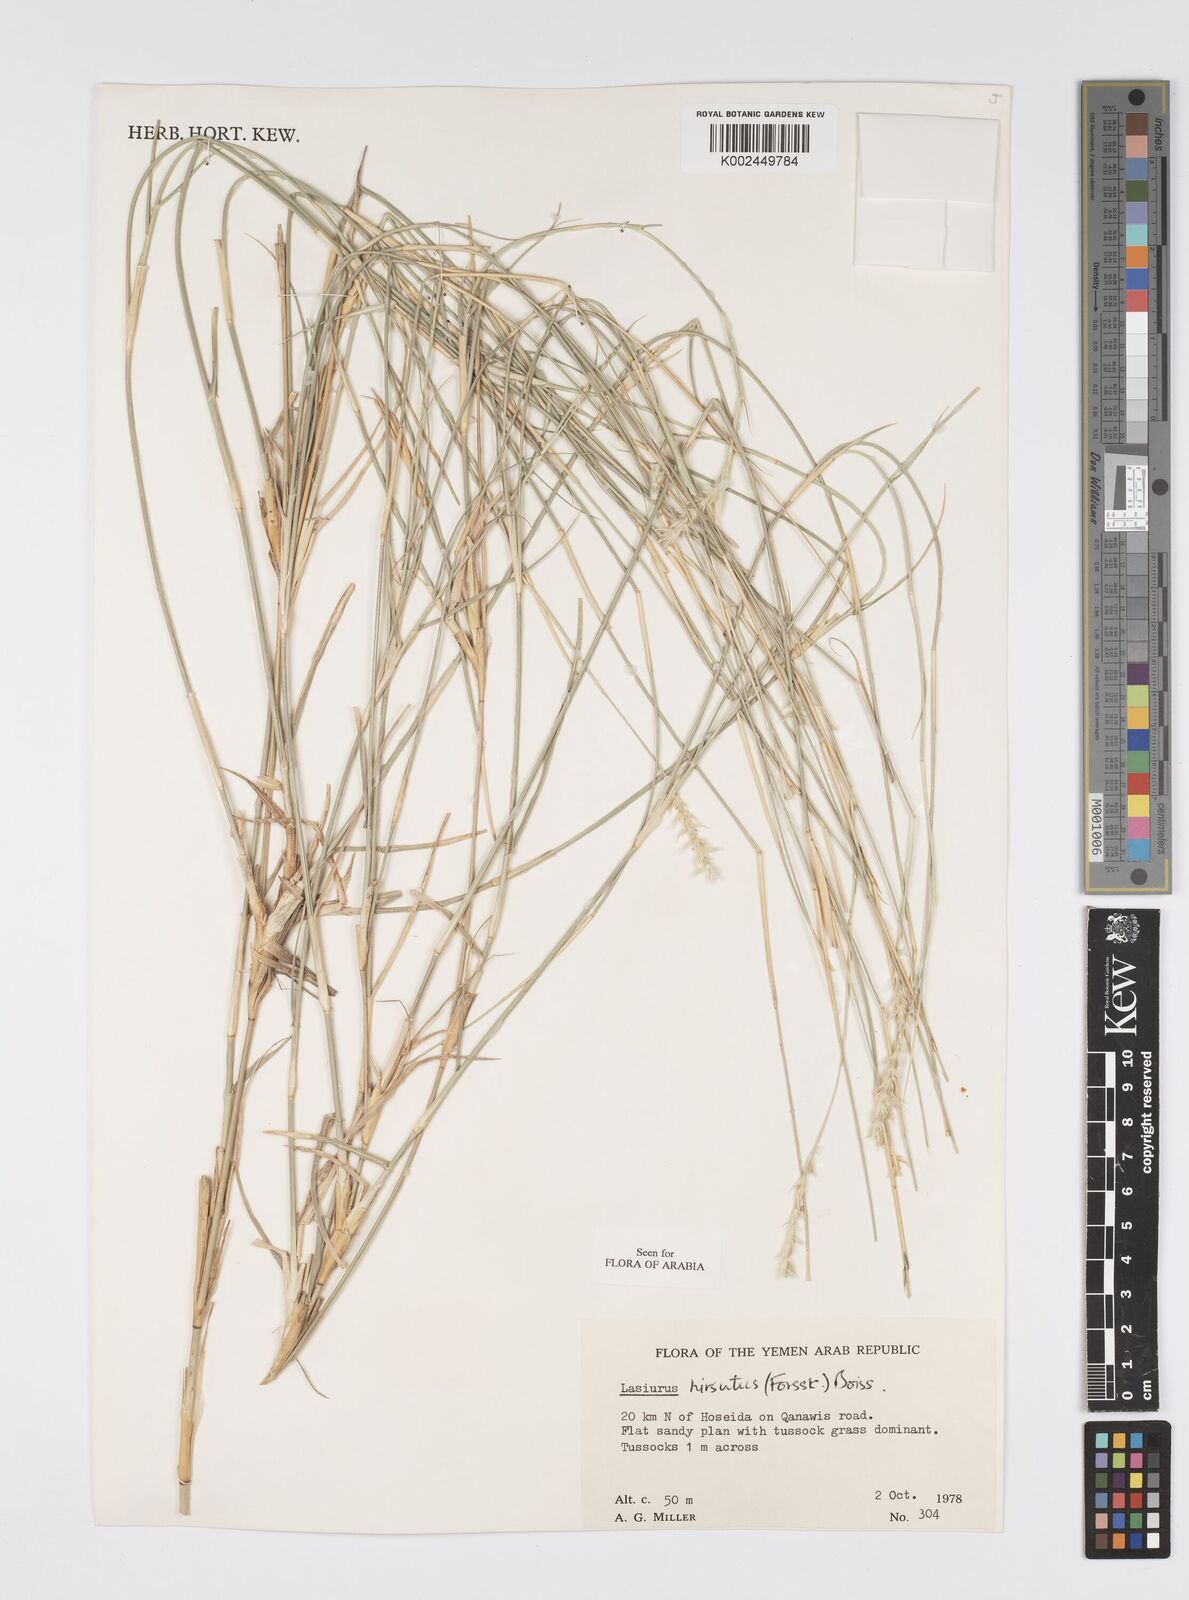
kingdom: Plantae
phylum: Tracheophyta
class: Liliopsida
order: Poales
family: Poaceae
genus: Lasiurus
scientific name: Lasiurus scindicus
